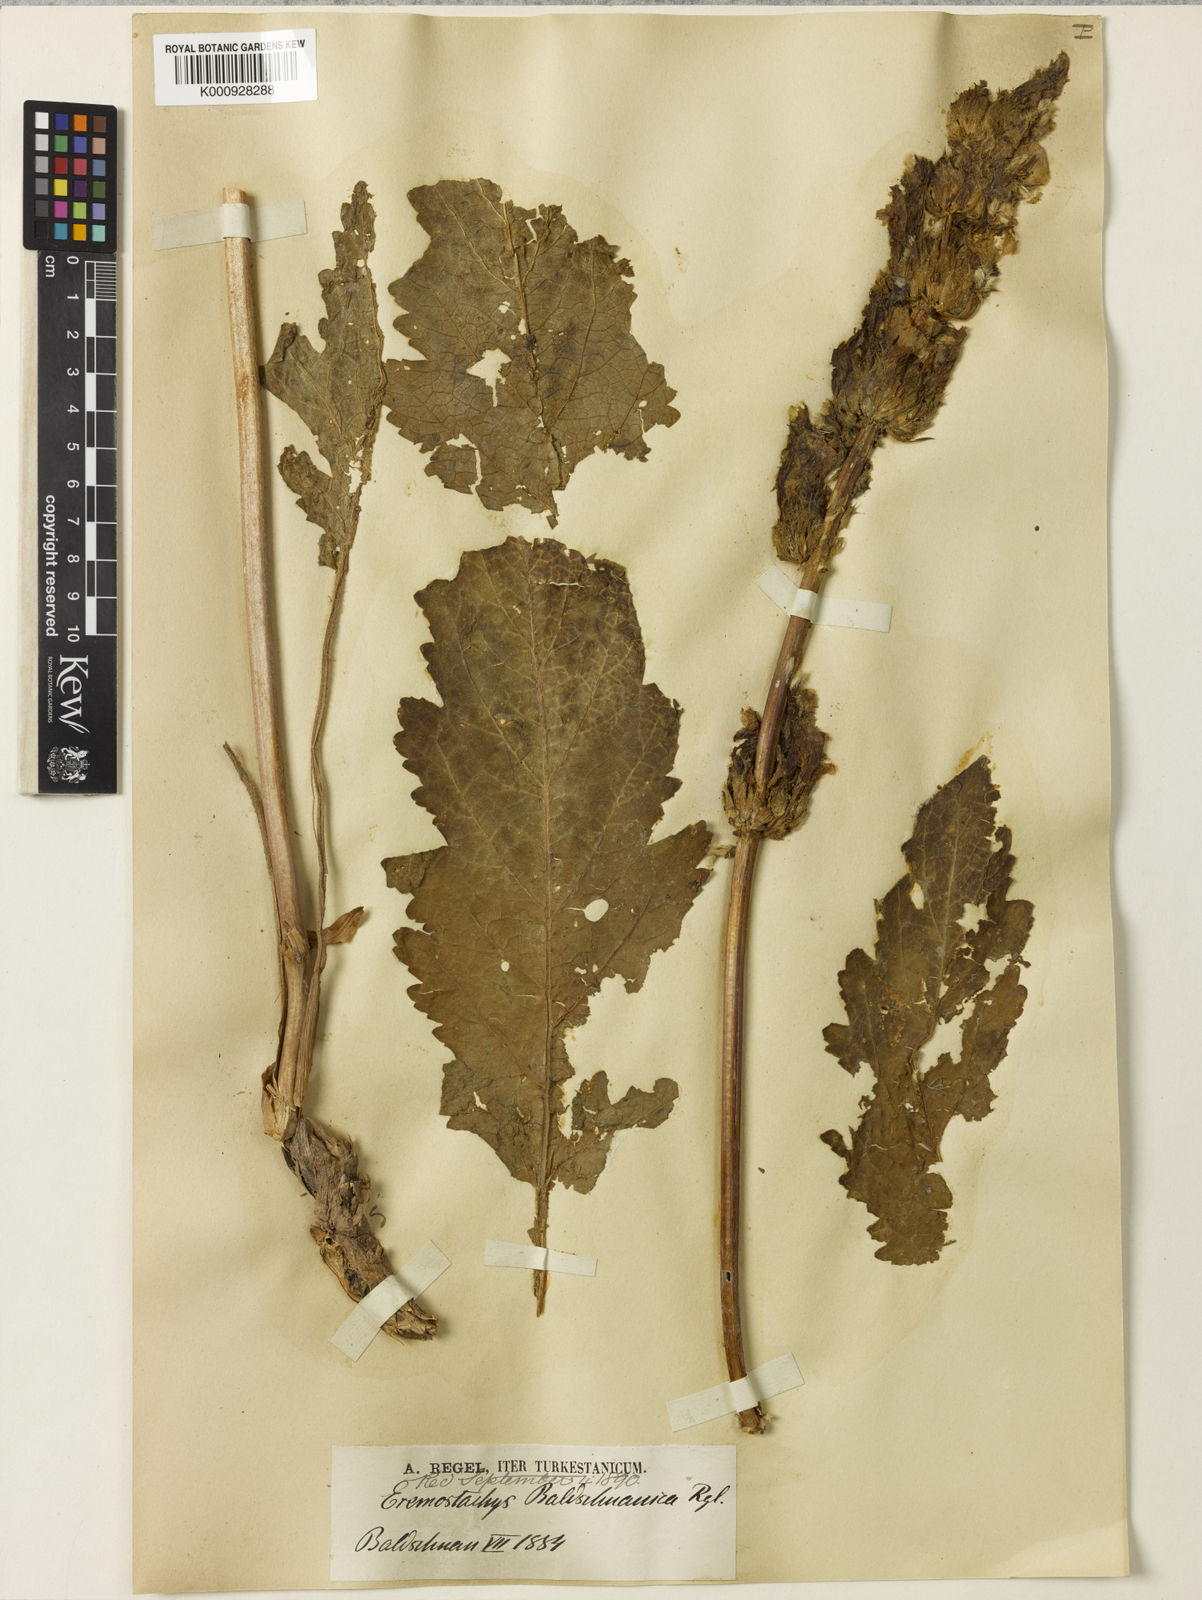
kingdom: Plantae
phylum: Tracheophyta
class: Magnoliopsida
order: Lamiales
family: Lamiaceae
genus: Phlomoides
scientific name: Phlomoides
